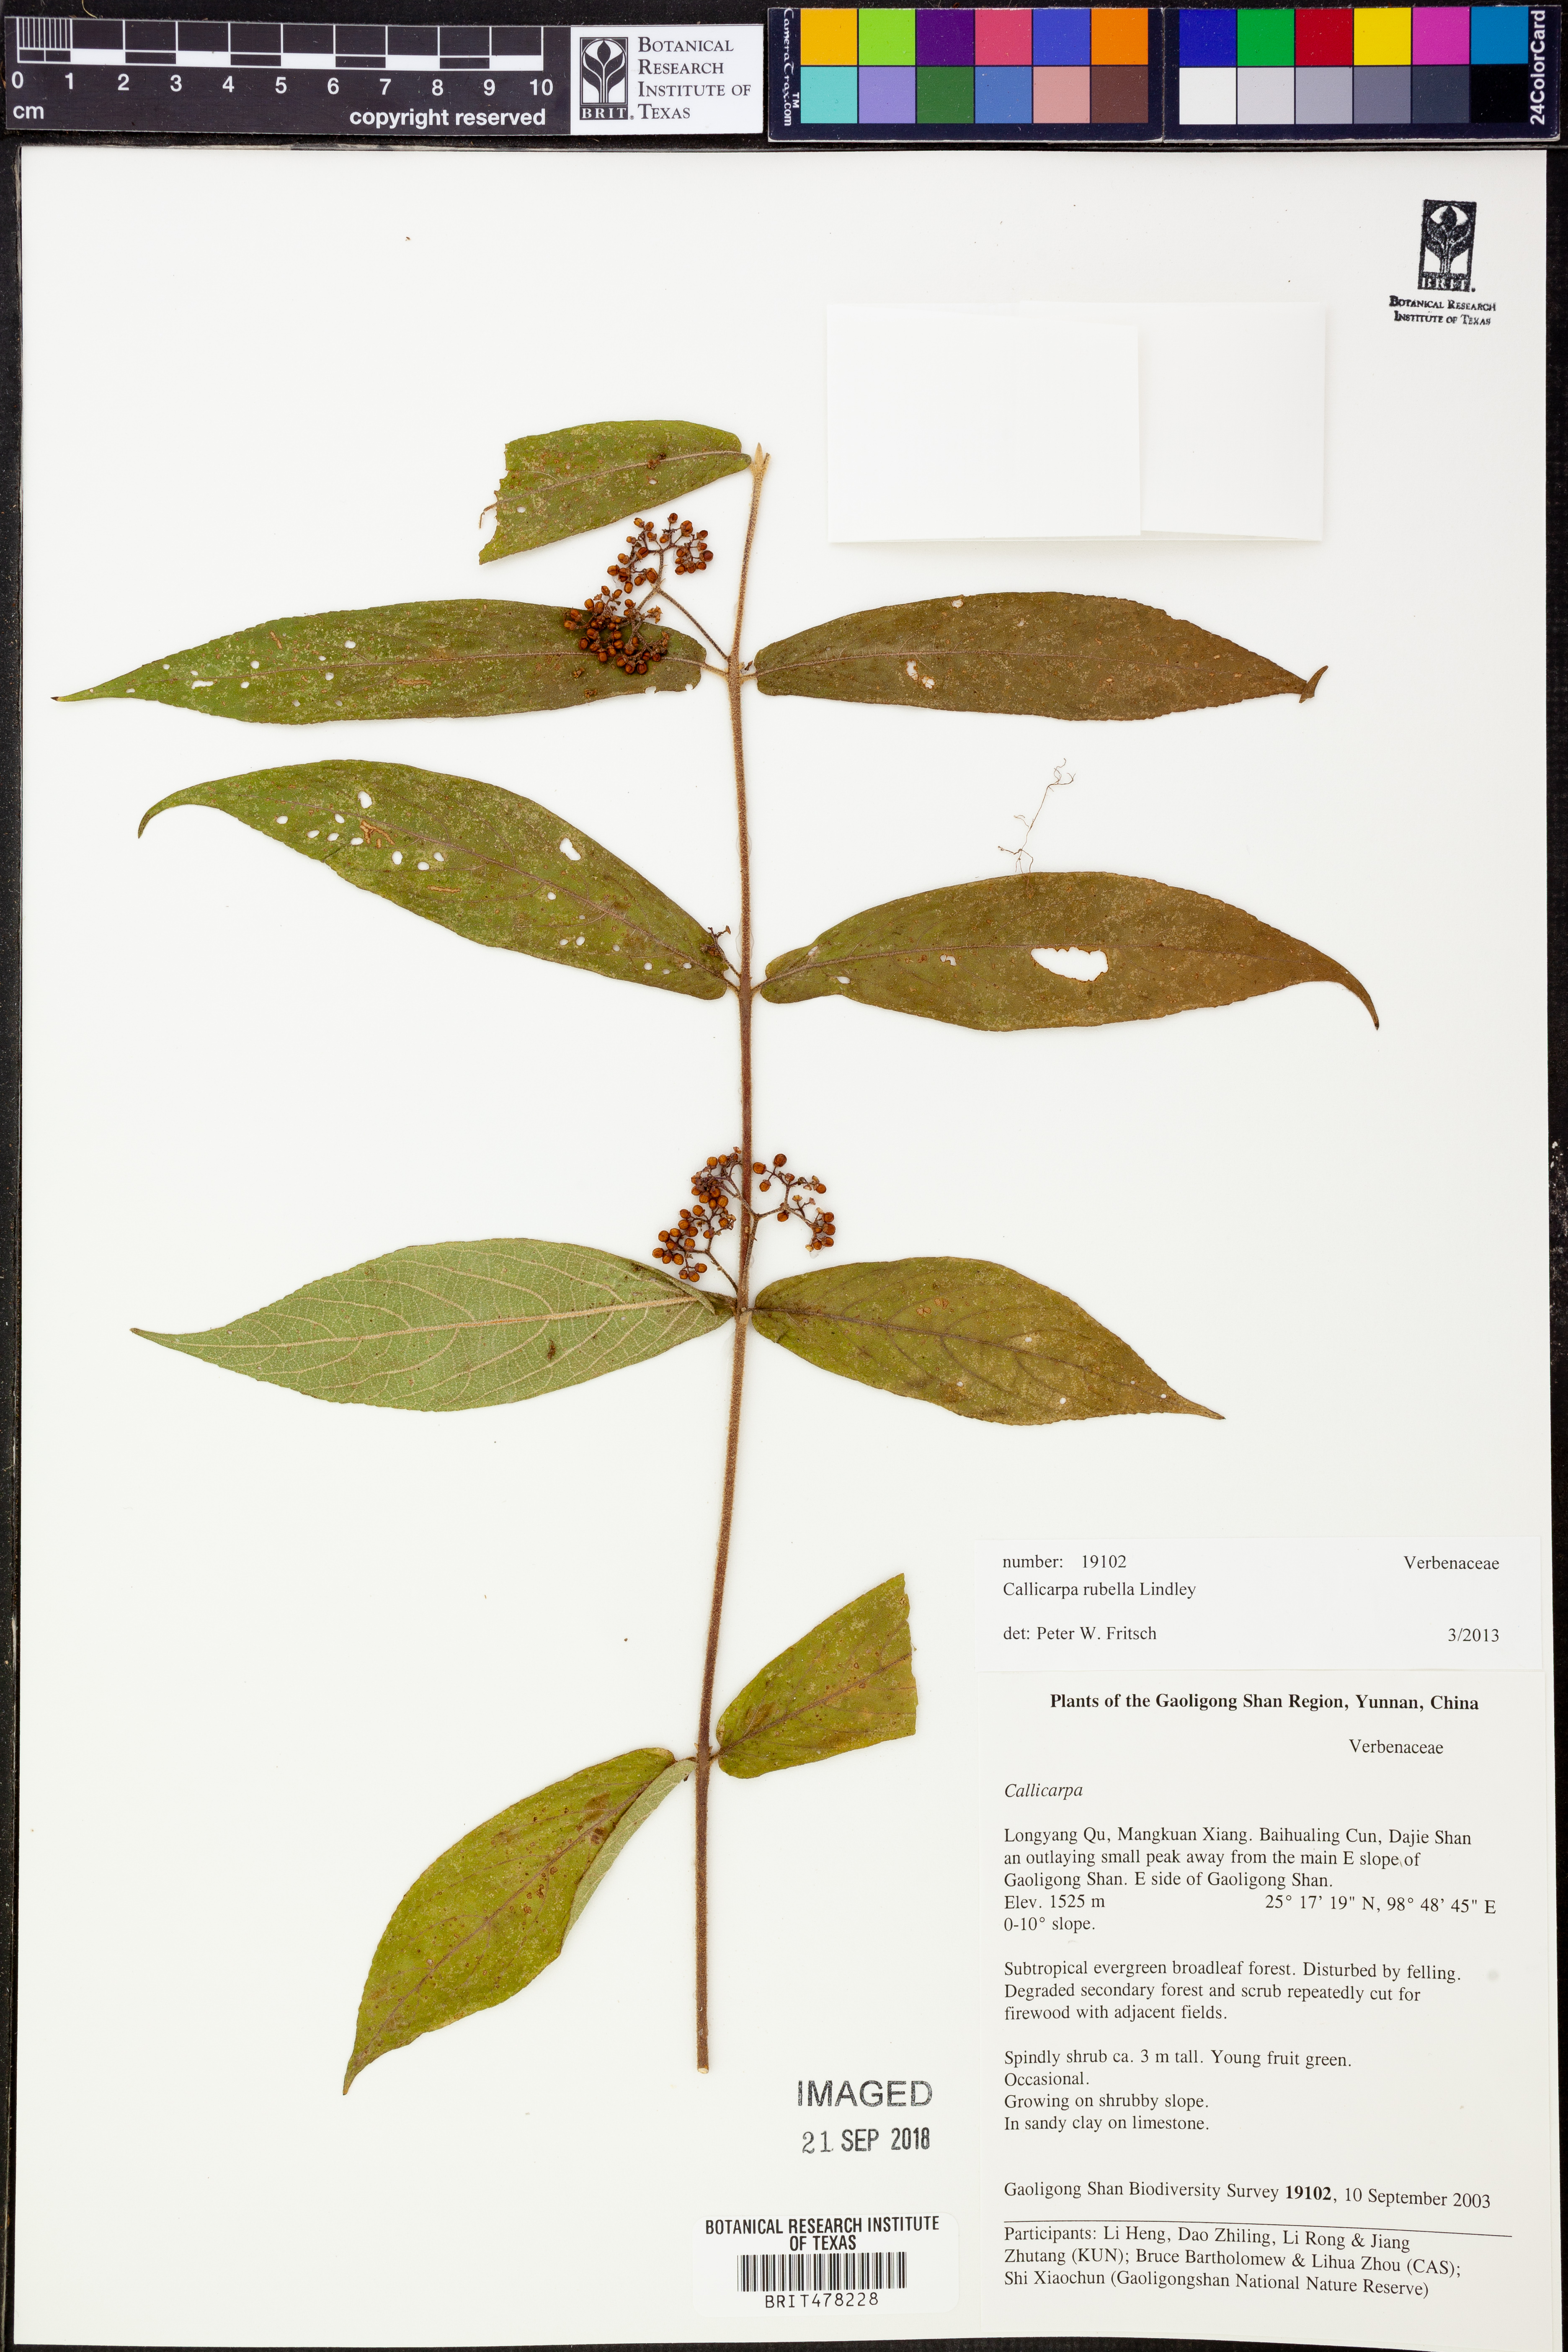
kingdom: Plantae
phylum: Tracheophyta
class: Magnoliopsida
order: Lamiales
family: Lamiaceae
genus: Callicarpa
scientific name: Callicarpa rubella
